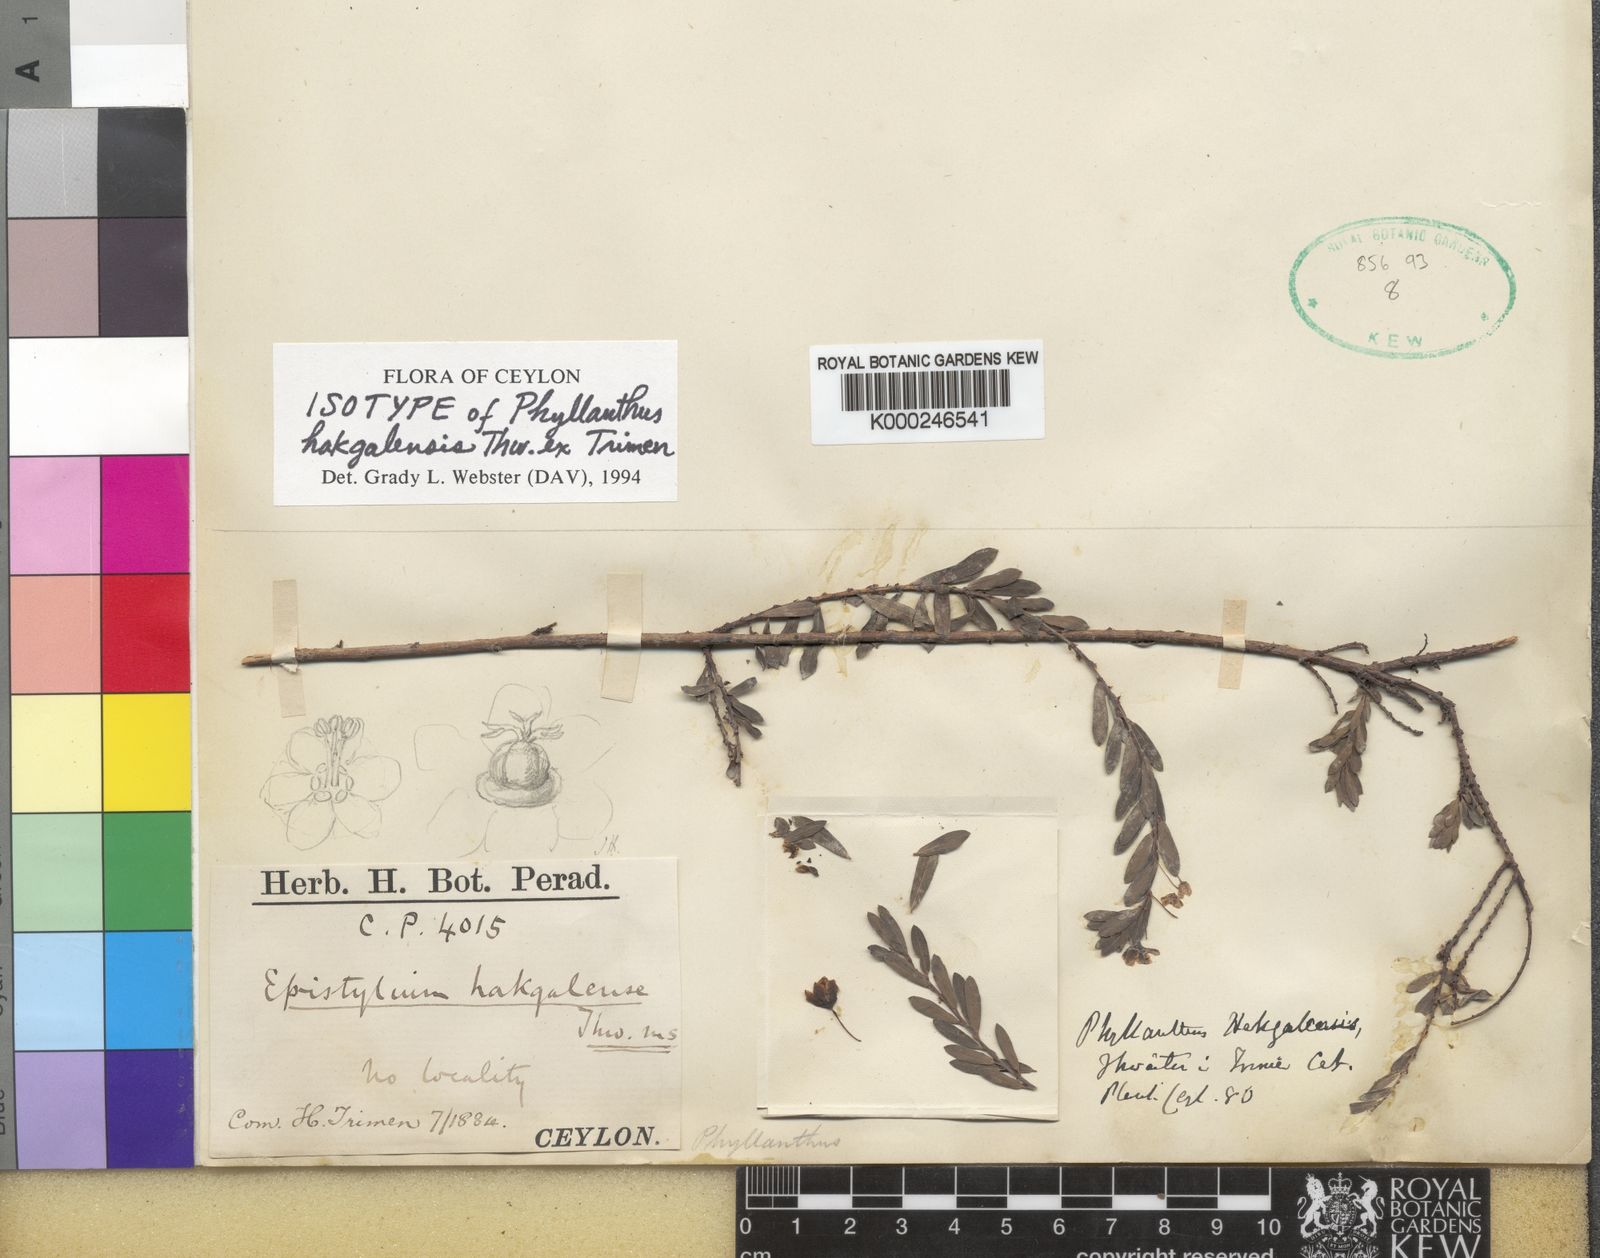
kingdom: Plantae
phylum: Tracheophyta
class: Magnoliopsida
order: Malpighiales
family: Phyllanthaceae
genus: Phyllanthus
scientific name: Phyllanthus hakgalensis
